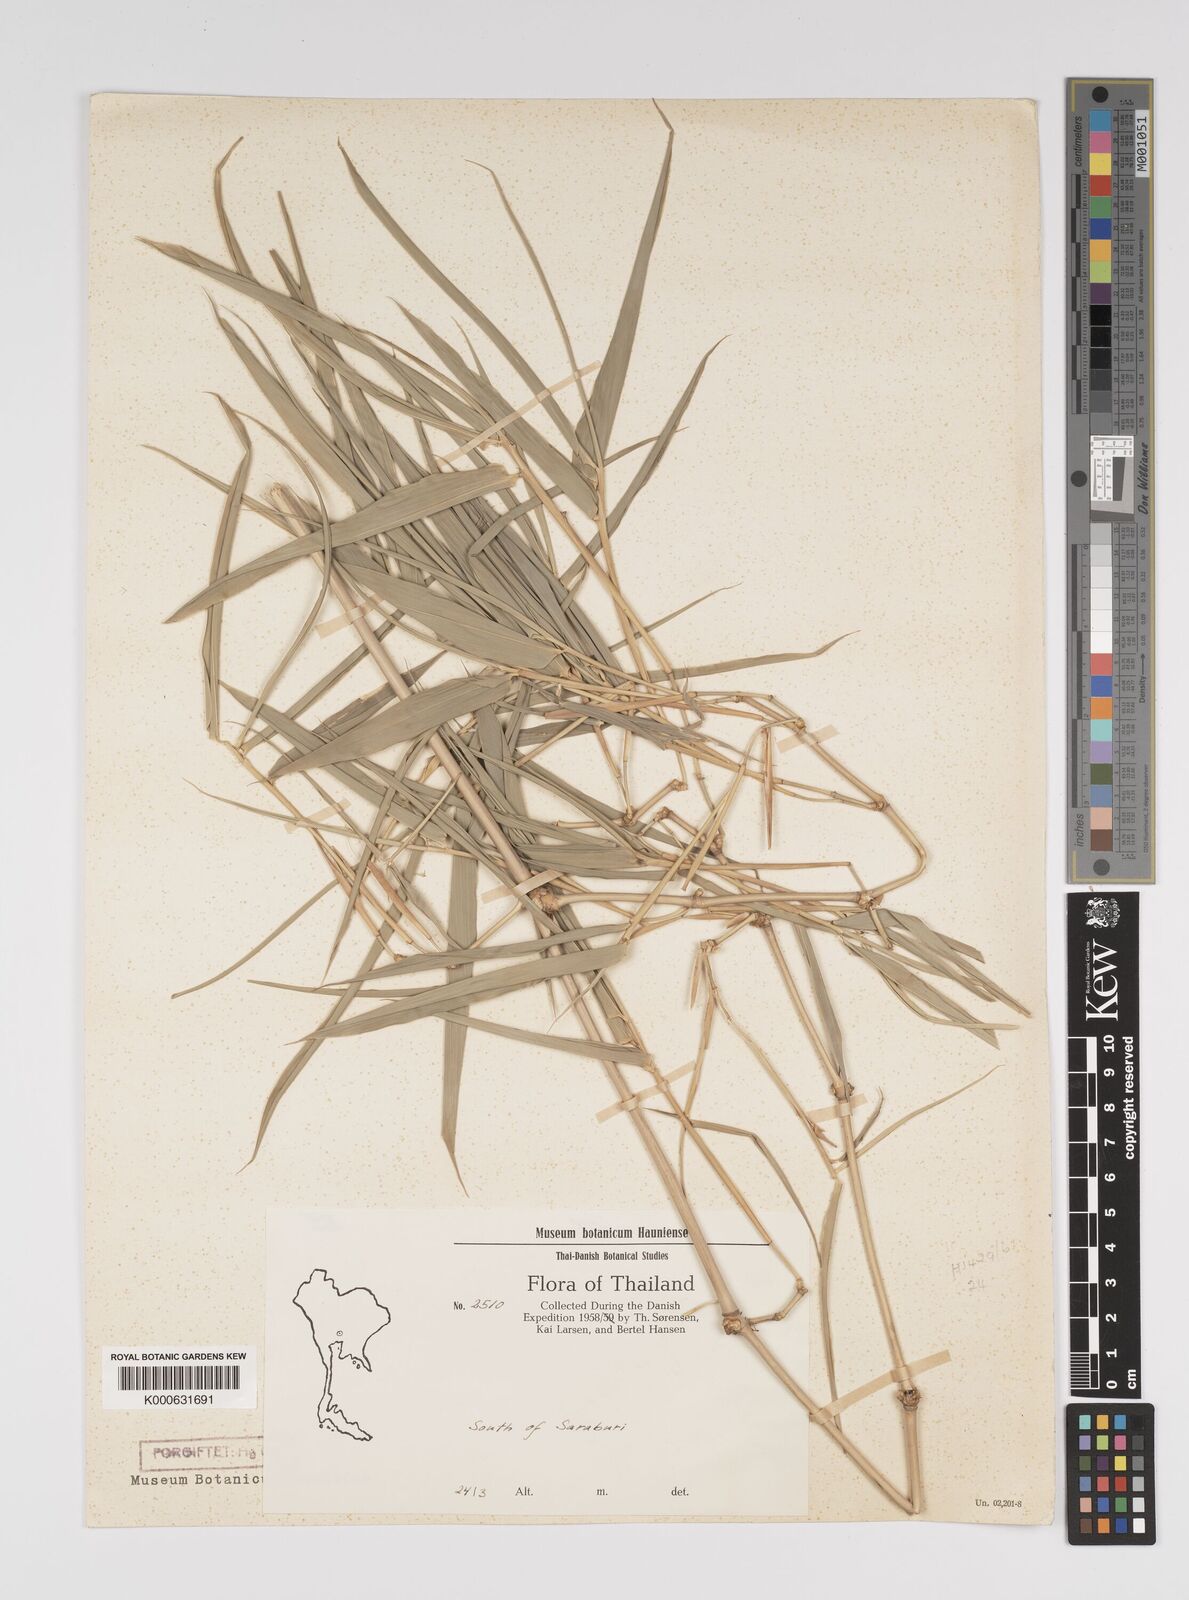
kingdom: Plantae
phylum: Tracheophyta
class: Liliopsida
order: Poales
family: Poaceae
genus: Bambusa
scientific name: Bambusa
